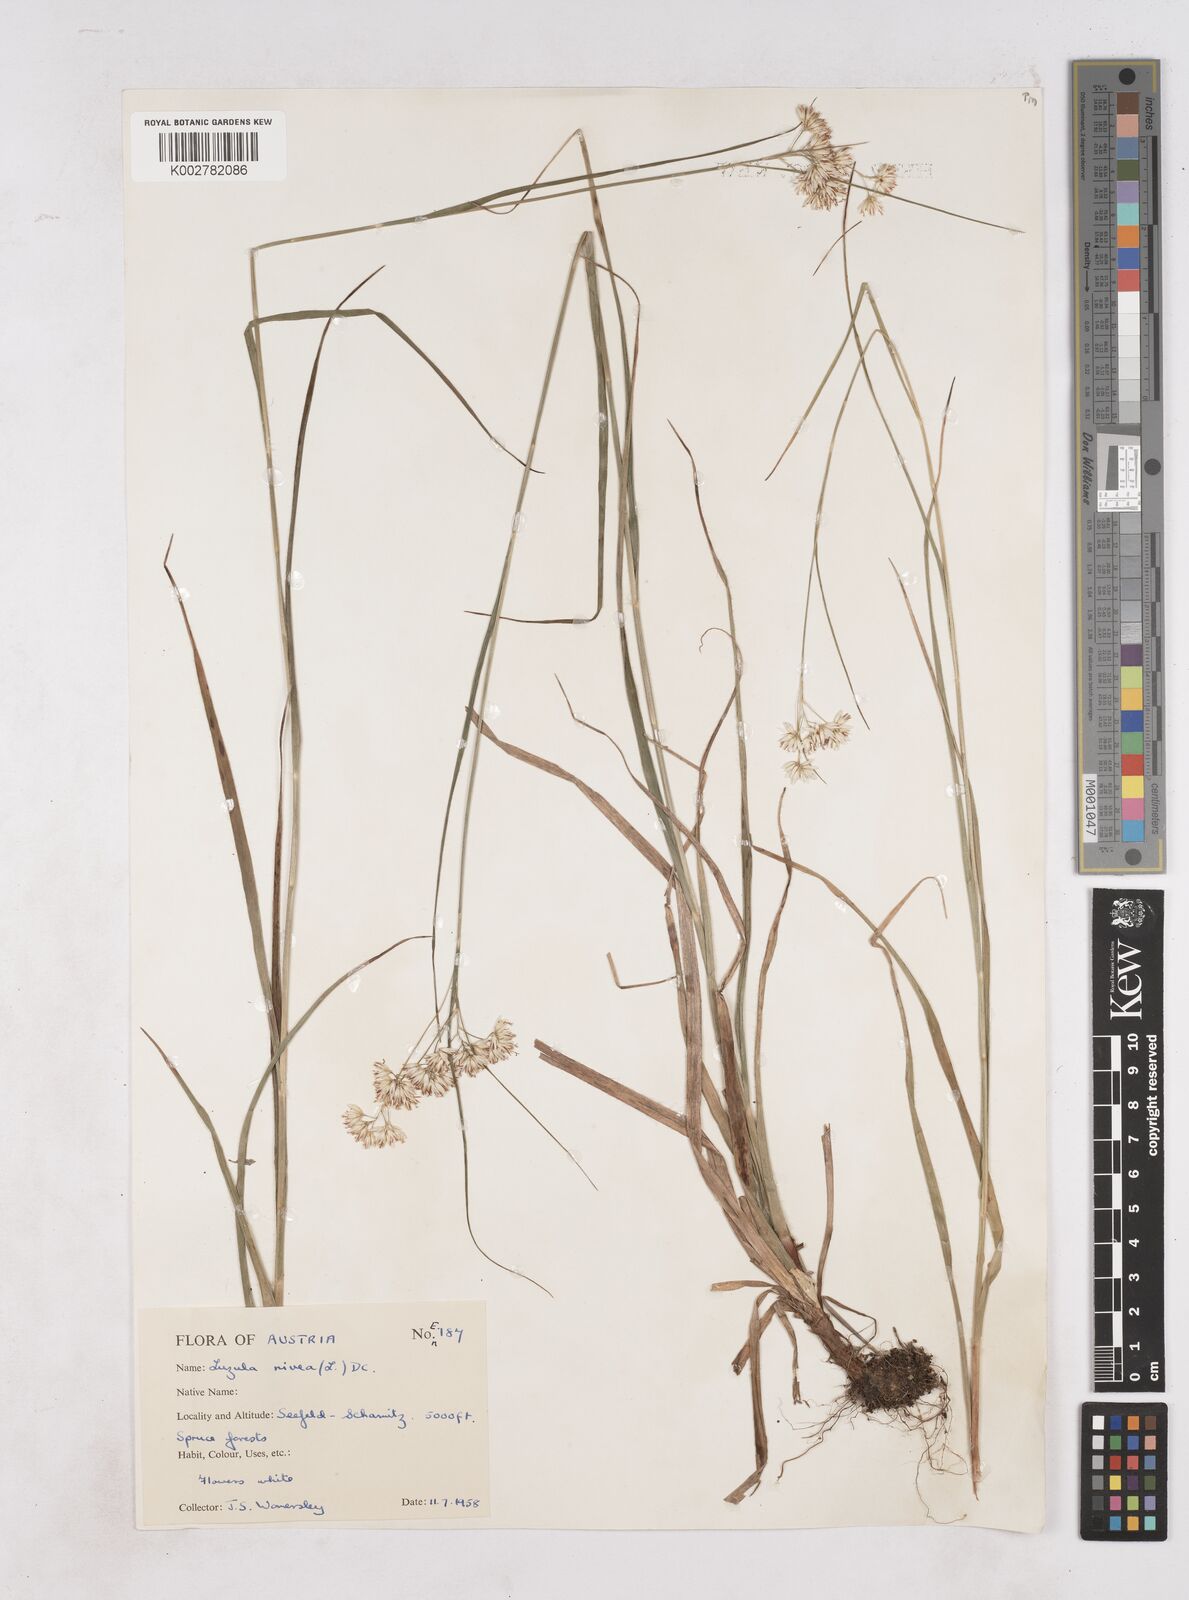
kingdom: Plantae
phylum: Tracheophyta
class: Liliopsida
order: Poales
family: Juncaceae
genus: Luzula
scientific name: Luzula nivea
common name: Snow-white wood-rush
